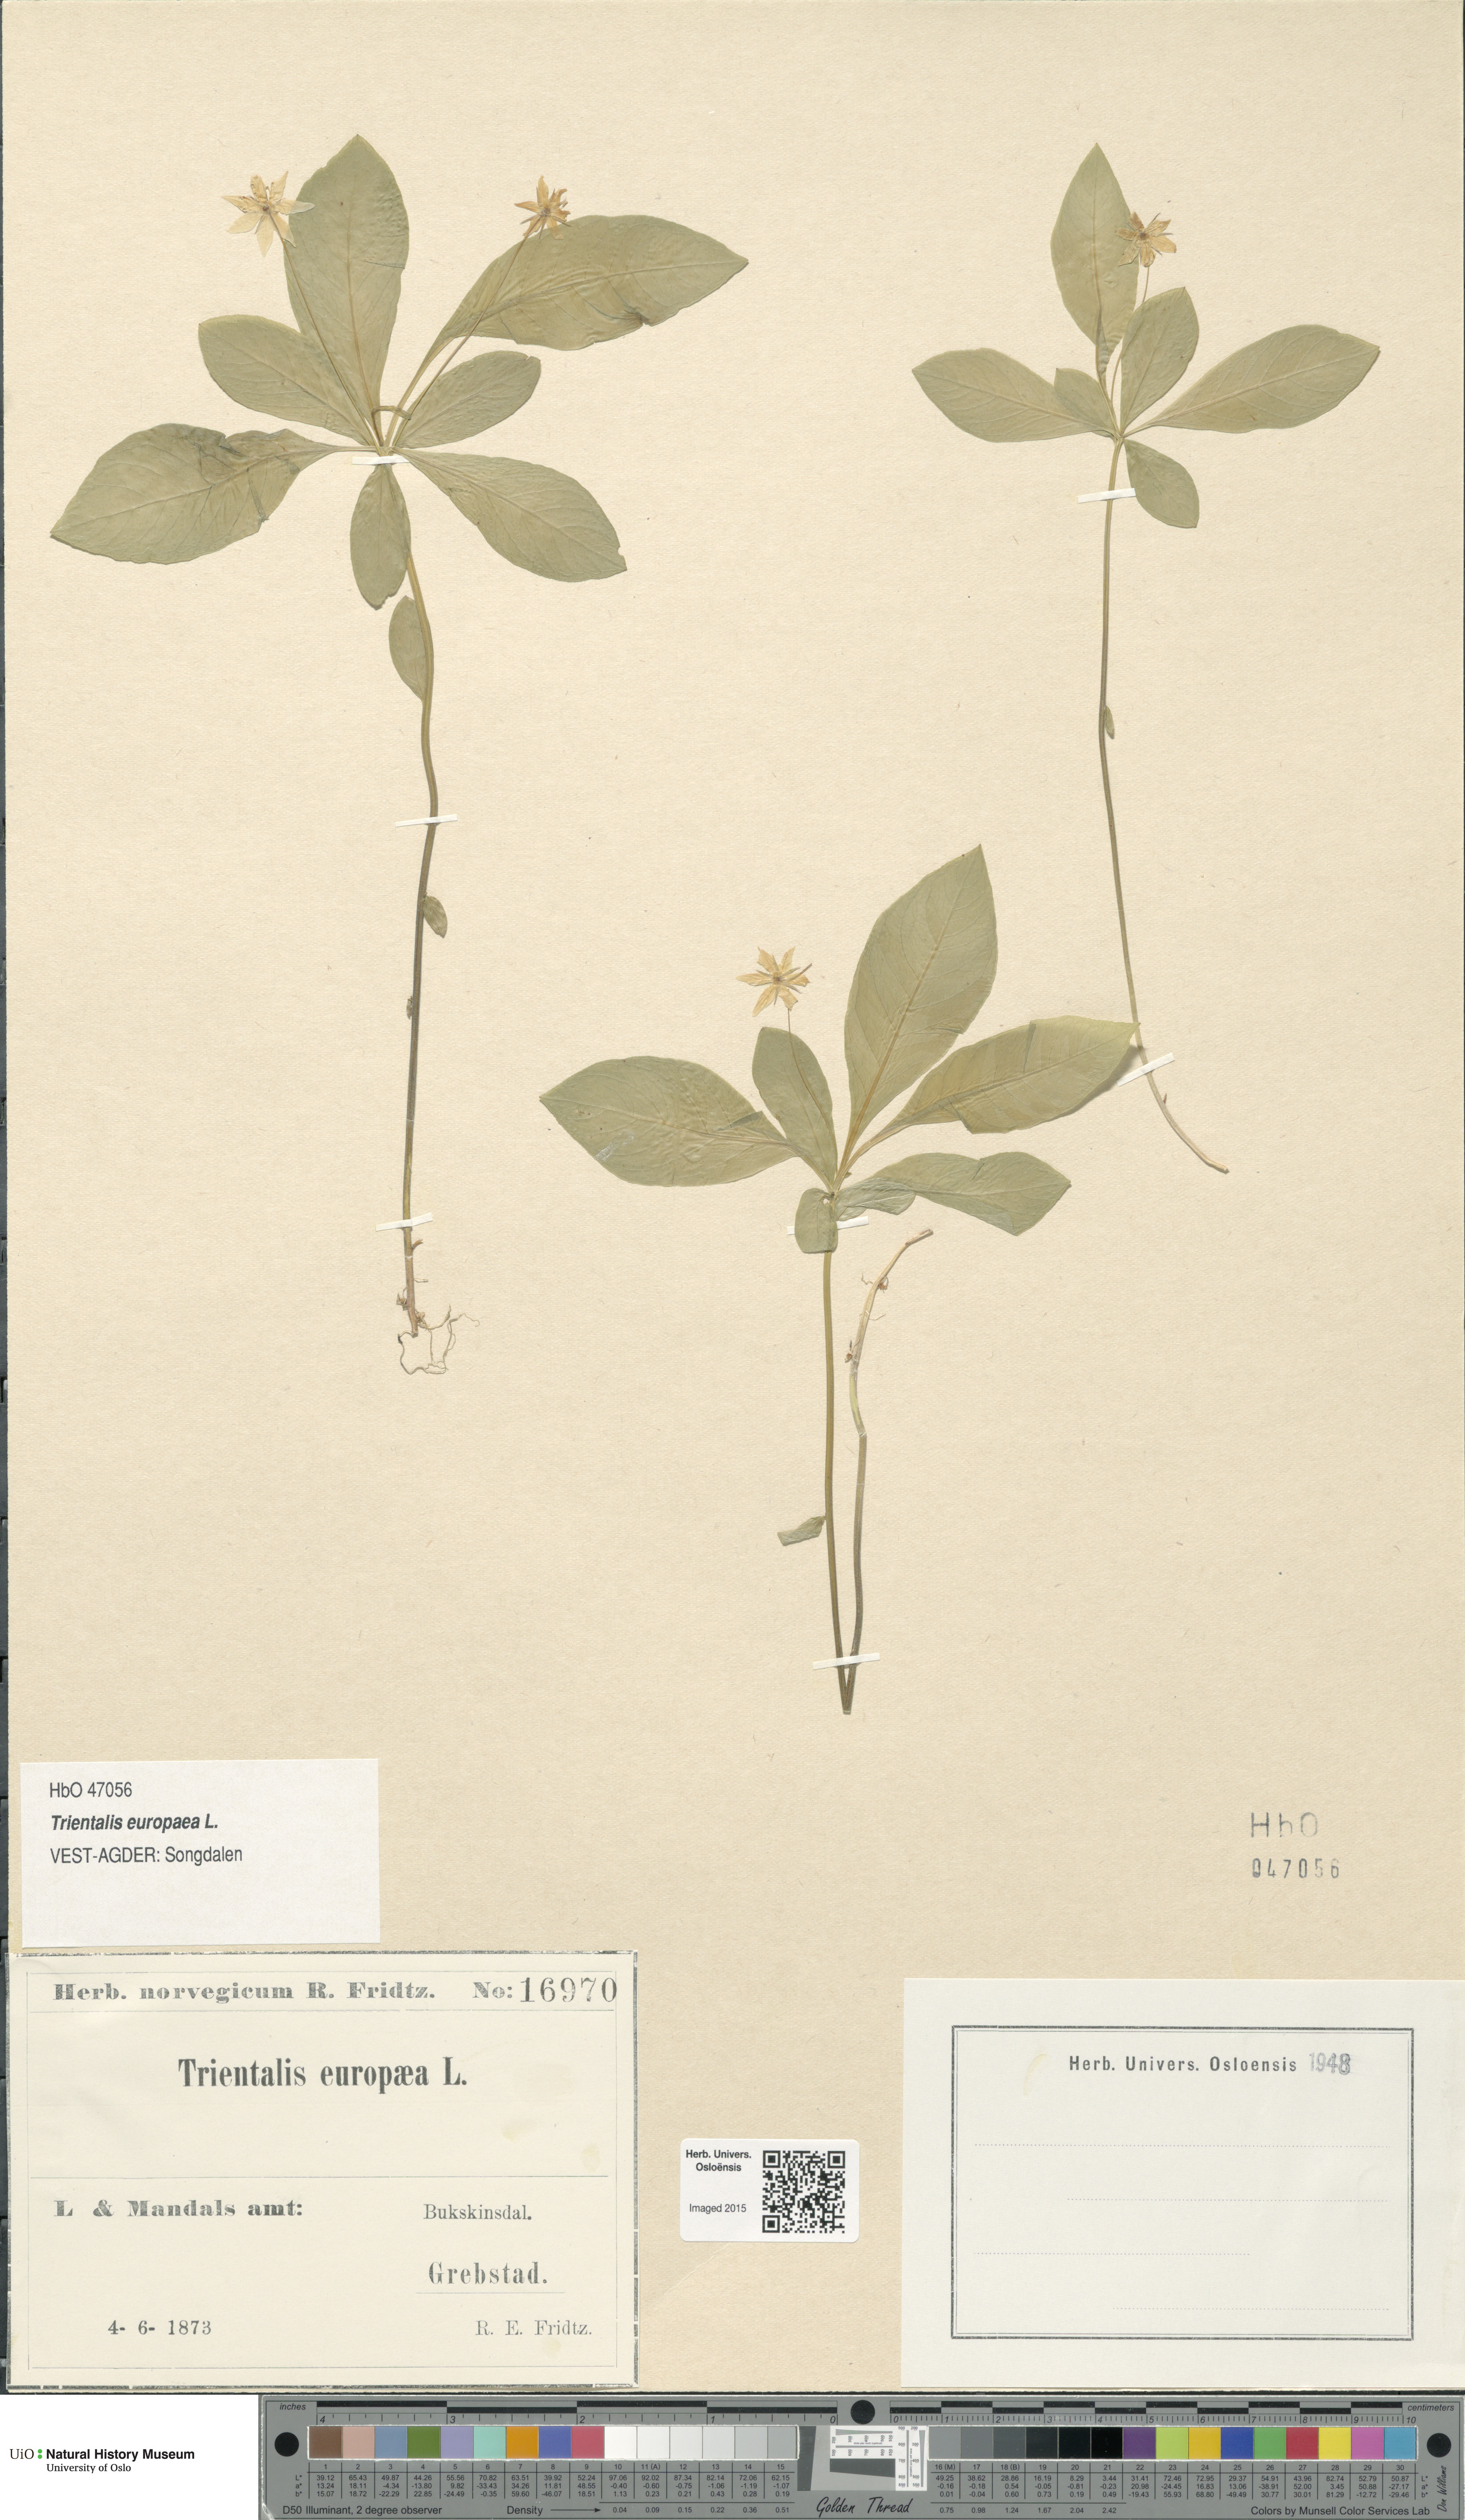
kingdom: Plantae
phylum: Tracheophyta
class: Magnoliopsida
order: Ericales
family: Primulaceae
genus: Lysimachia
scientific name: Lysimachia europaea
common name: Arctic starflower
